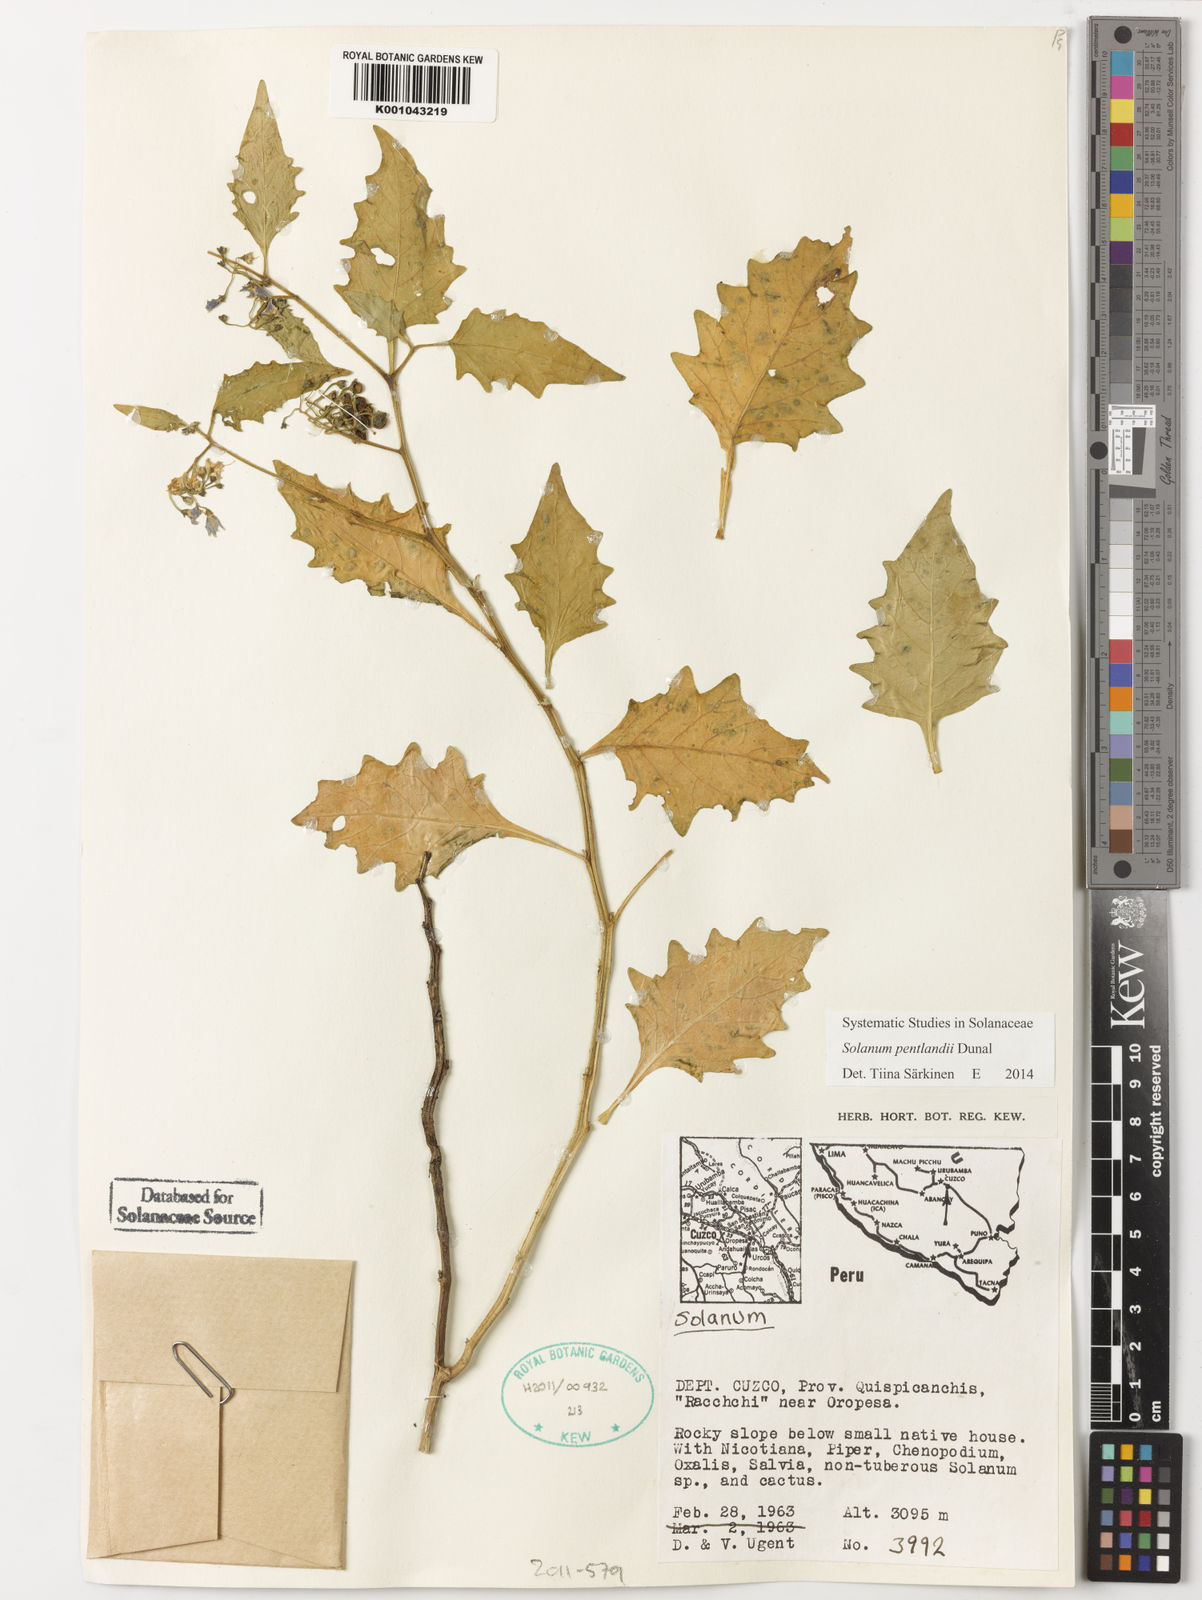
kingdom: Plantae
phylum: Tracheophyta
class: Magnoliopsida
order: Solanales
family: Solanaceae
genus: Solanum
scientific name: Solanum pentlandii
